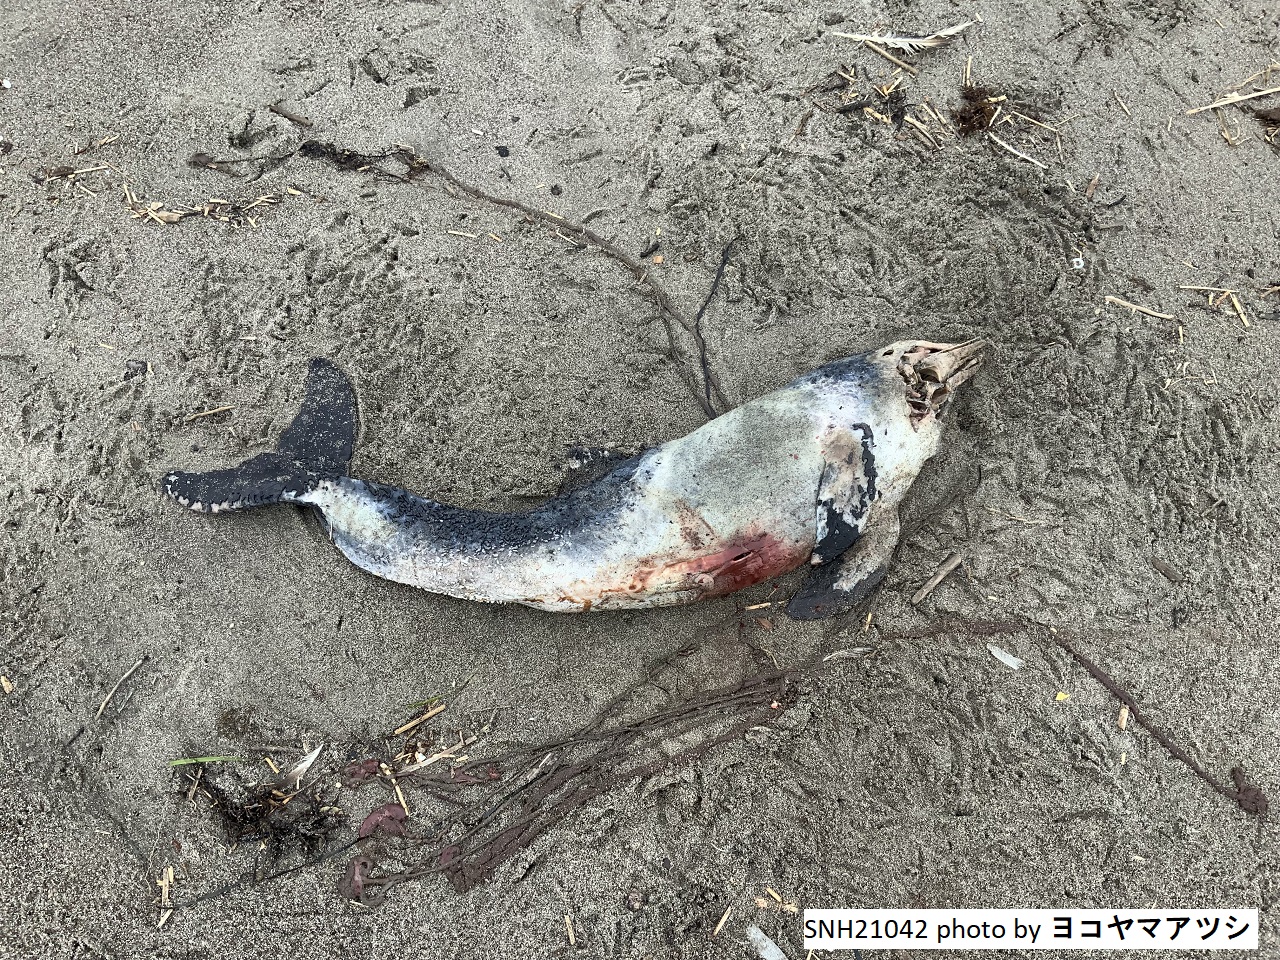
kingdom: Animalia
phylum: Chordata
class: Mammalia
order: Cetacea
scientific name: Cetacea
